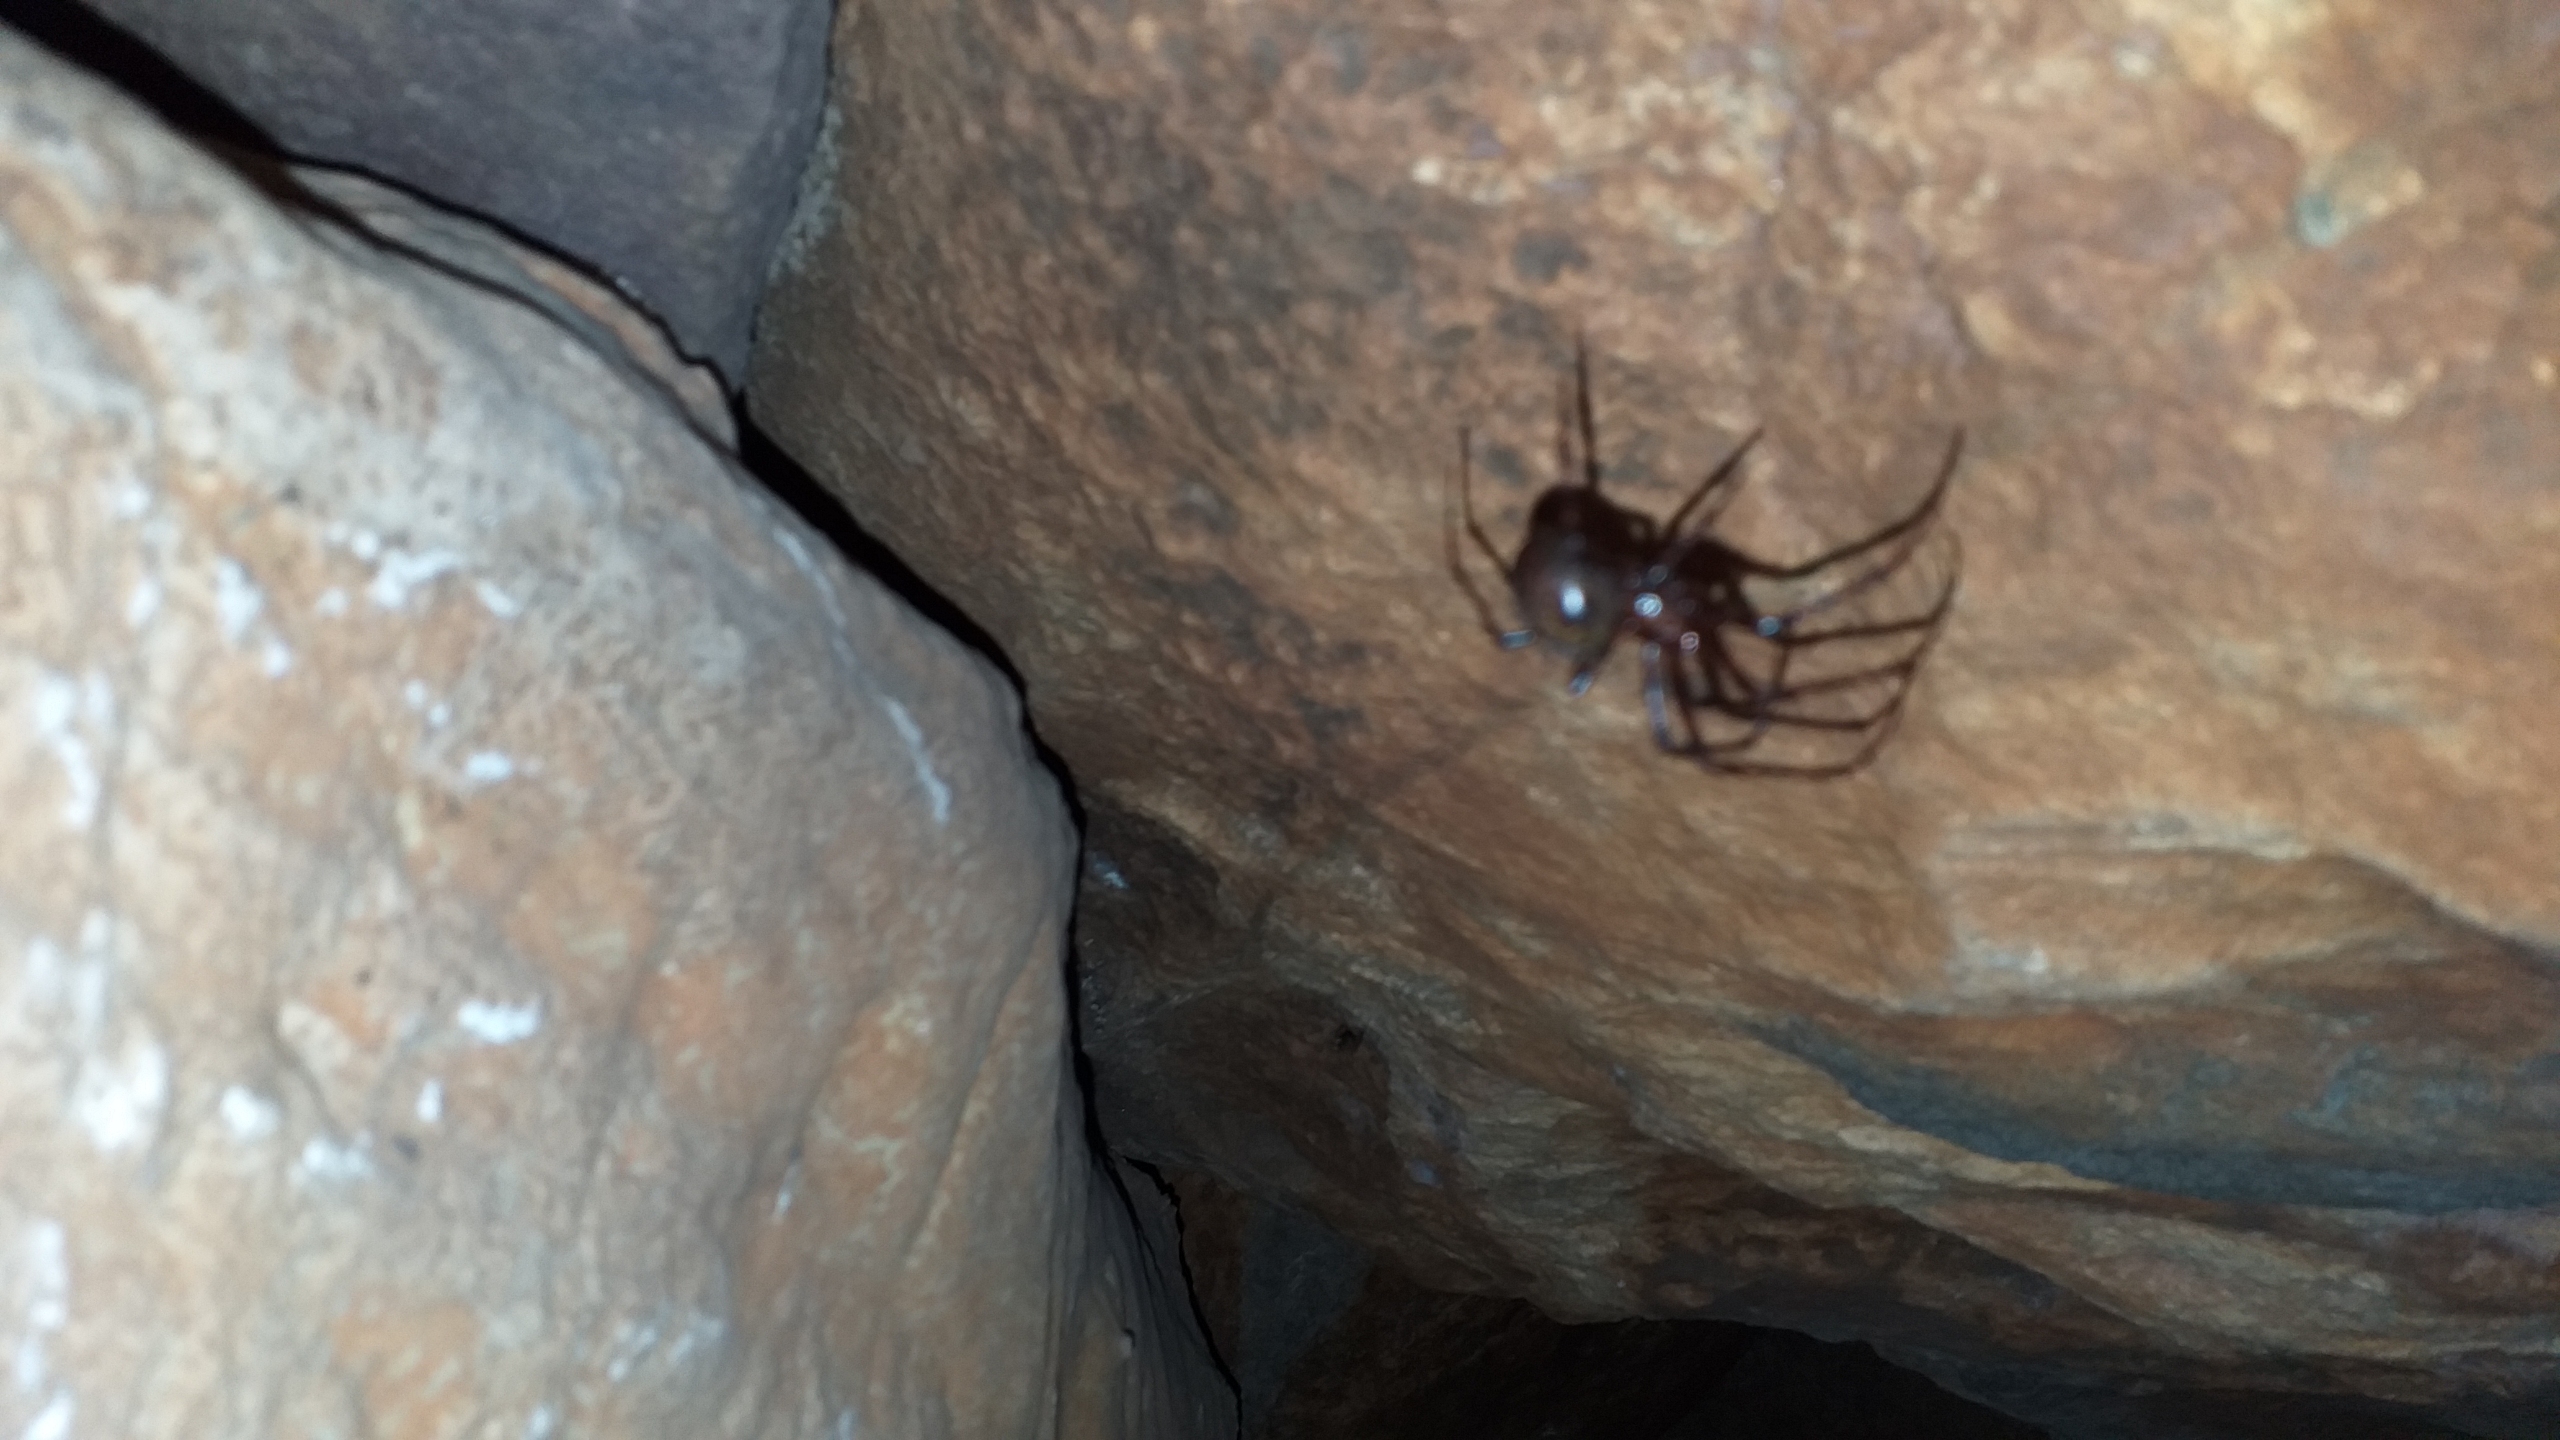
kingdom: Animalia
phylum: Arthropoda
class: Arachnida
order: Araneae
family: Tetragnathidae
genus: Meta
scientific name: Meta menardi
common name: Grotteedderkop
